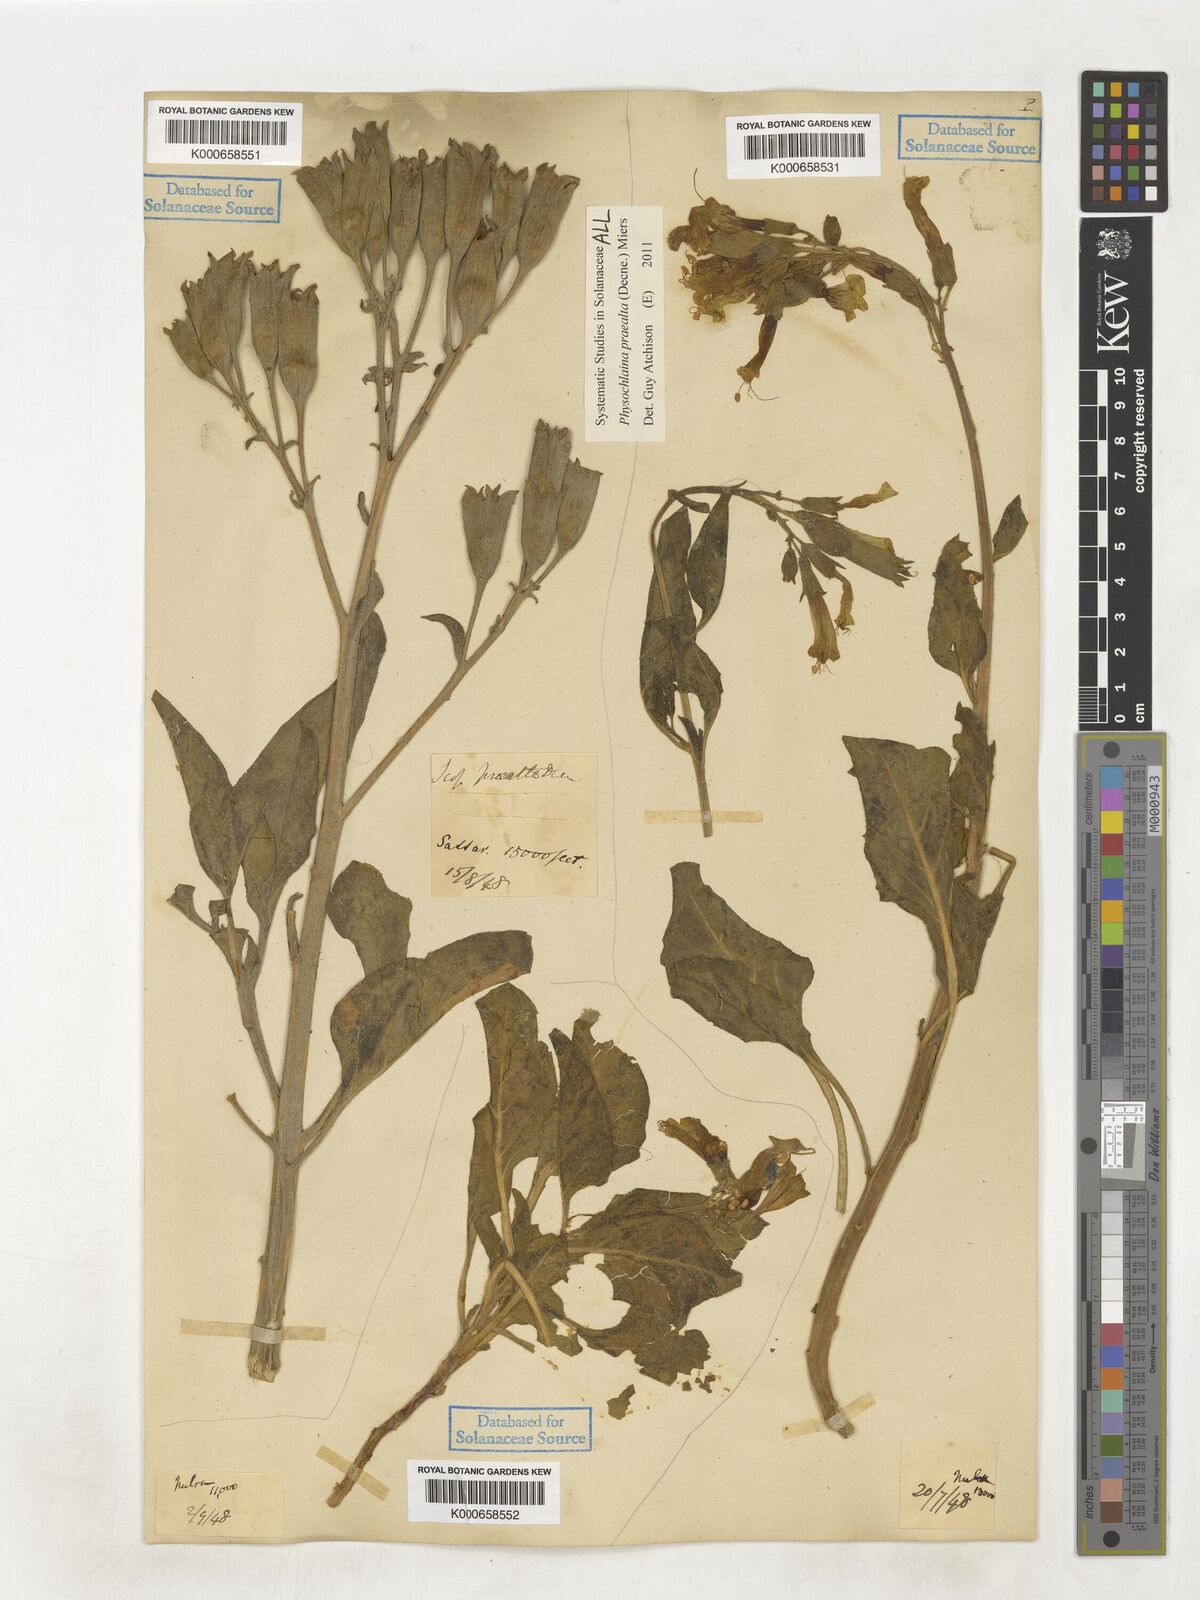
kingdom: Plantae
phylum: Tracheophyta
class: Magnoliopsida
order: Solanales
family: Solanaceae
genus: Physochlaina
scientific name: Physochlaina praealta
